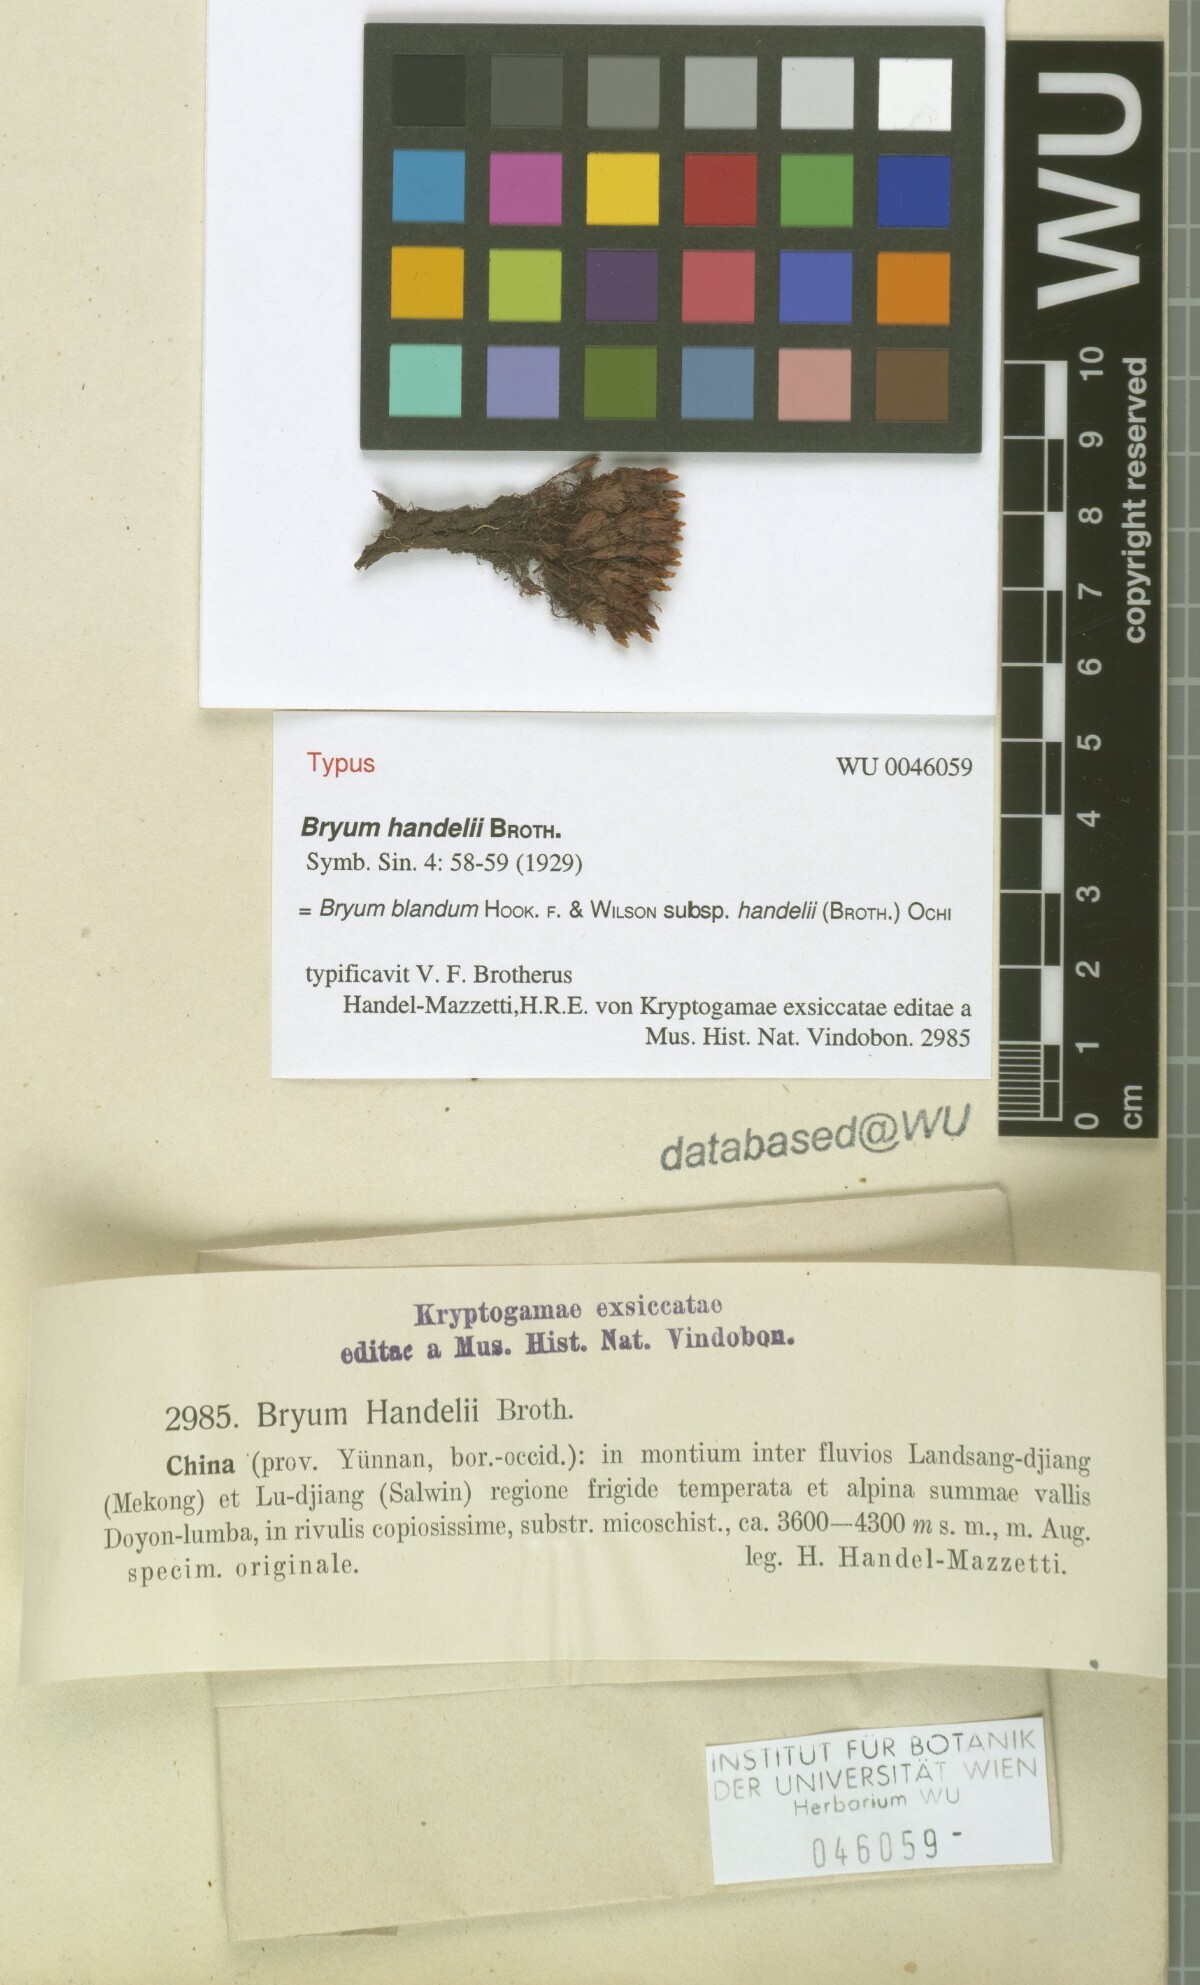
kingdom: Plantae
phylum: Bryophyta
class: Bryopsida
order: Bryales
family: Bryaceae
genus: Ochiobryum
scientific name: Ochiobryum handelii
